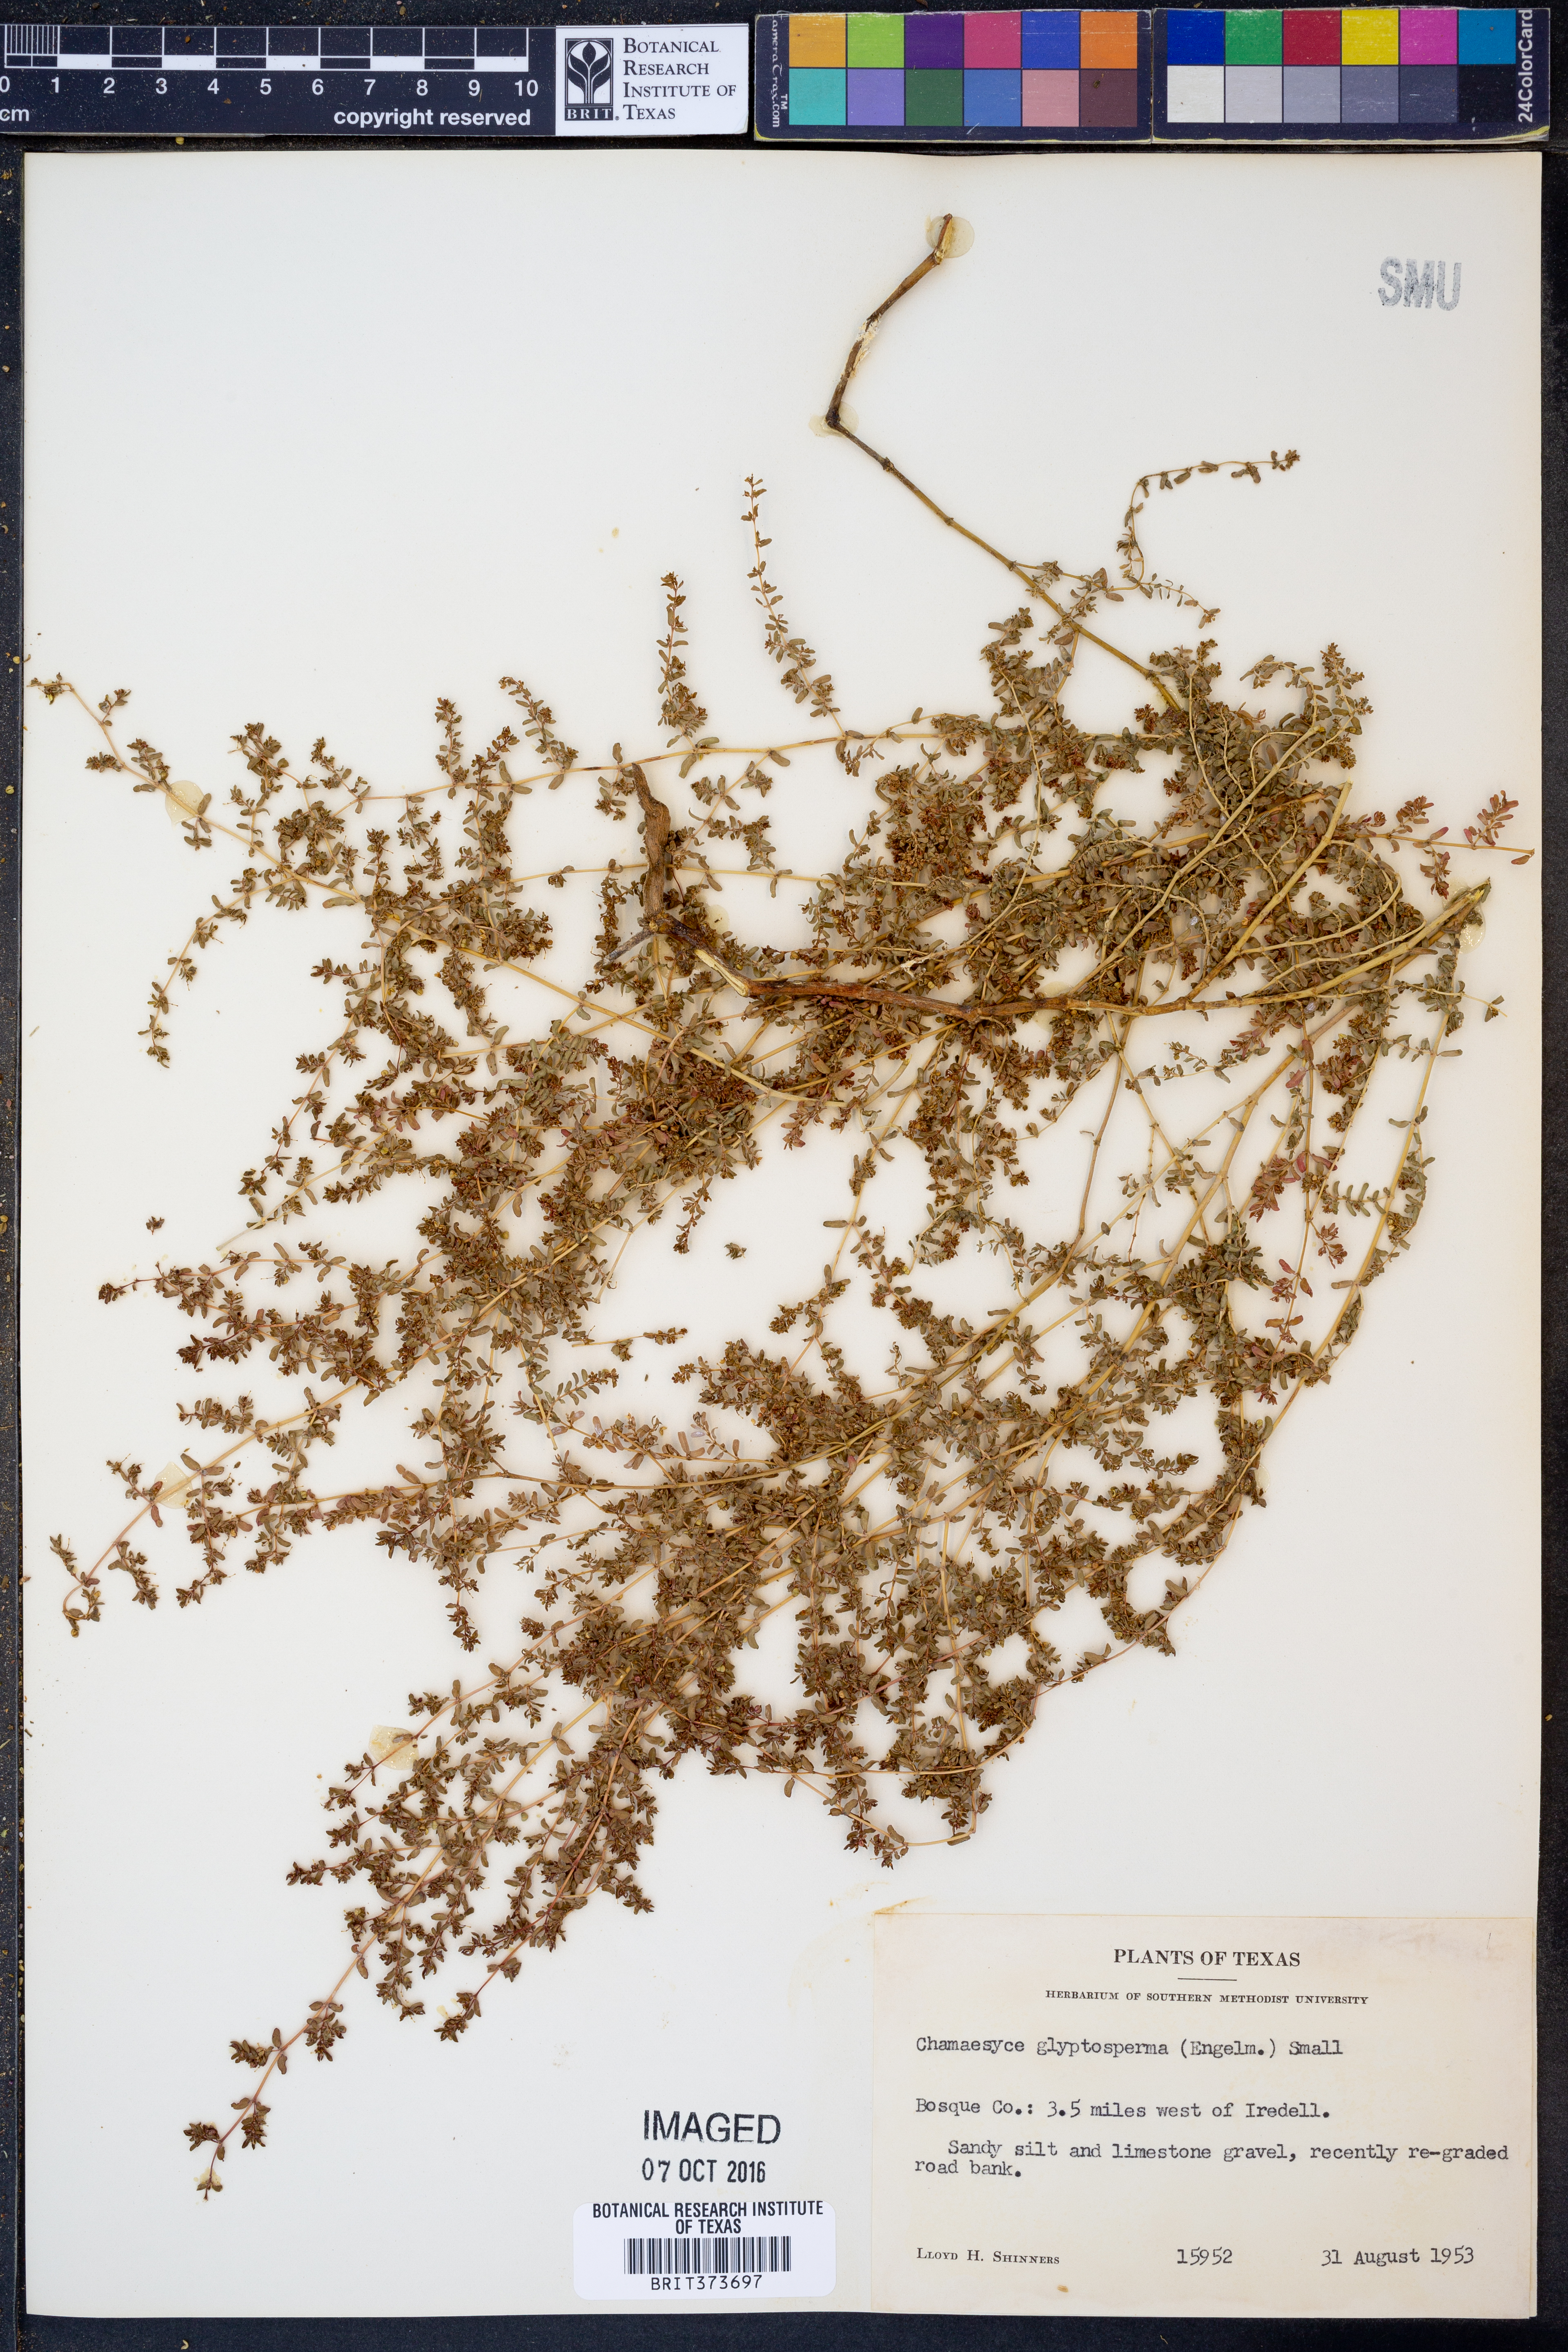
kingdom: Plantae
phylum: Tracheophyta
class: Magnoliopsida
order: Malpighiales
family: Euphorbiaceae
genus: Euphorbia
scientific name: Euphorbia glyptosperma
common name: Corrugate-seeded spurge
